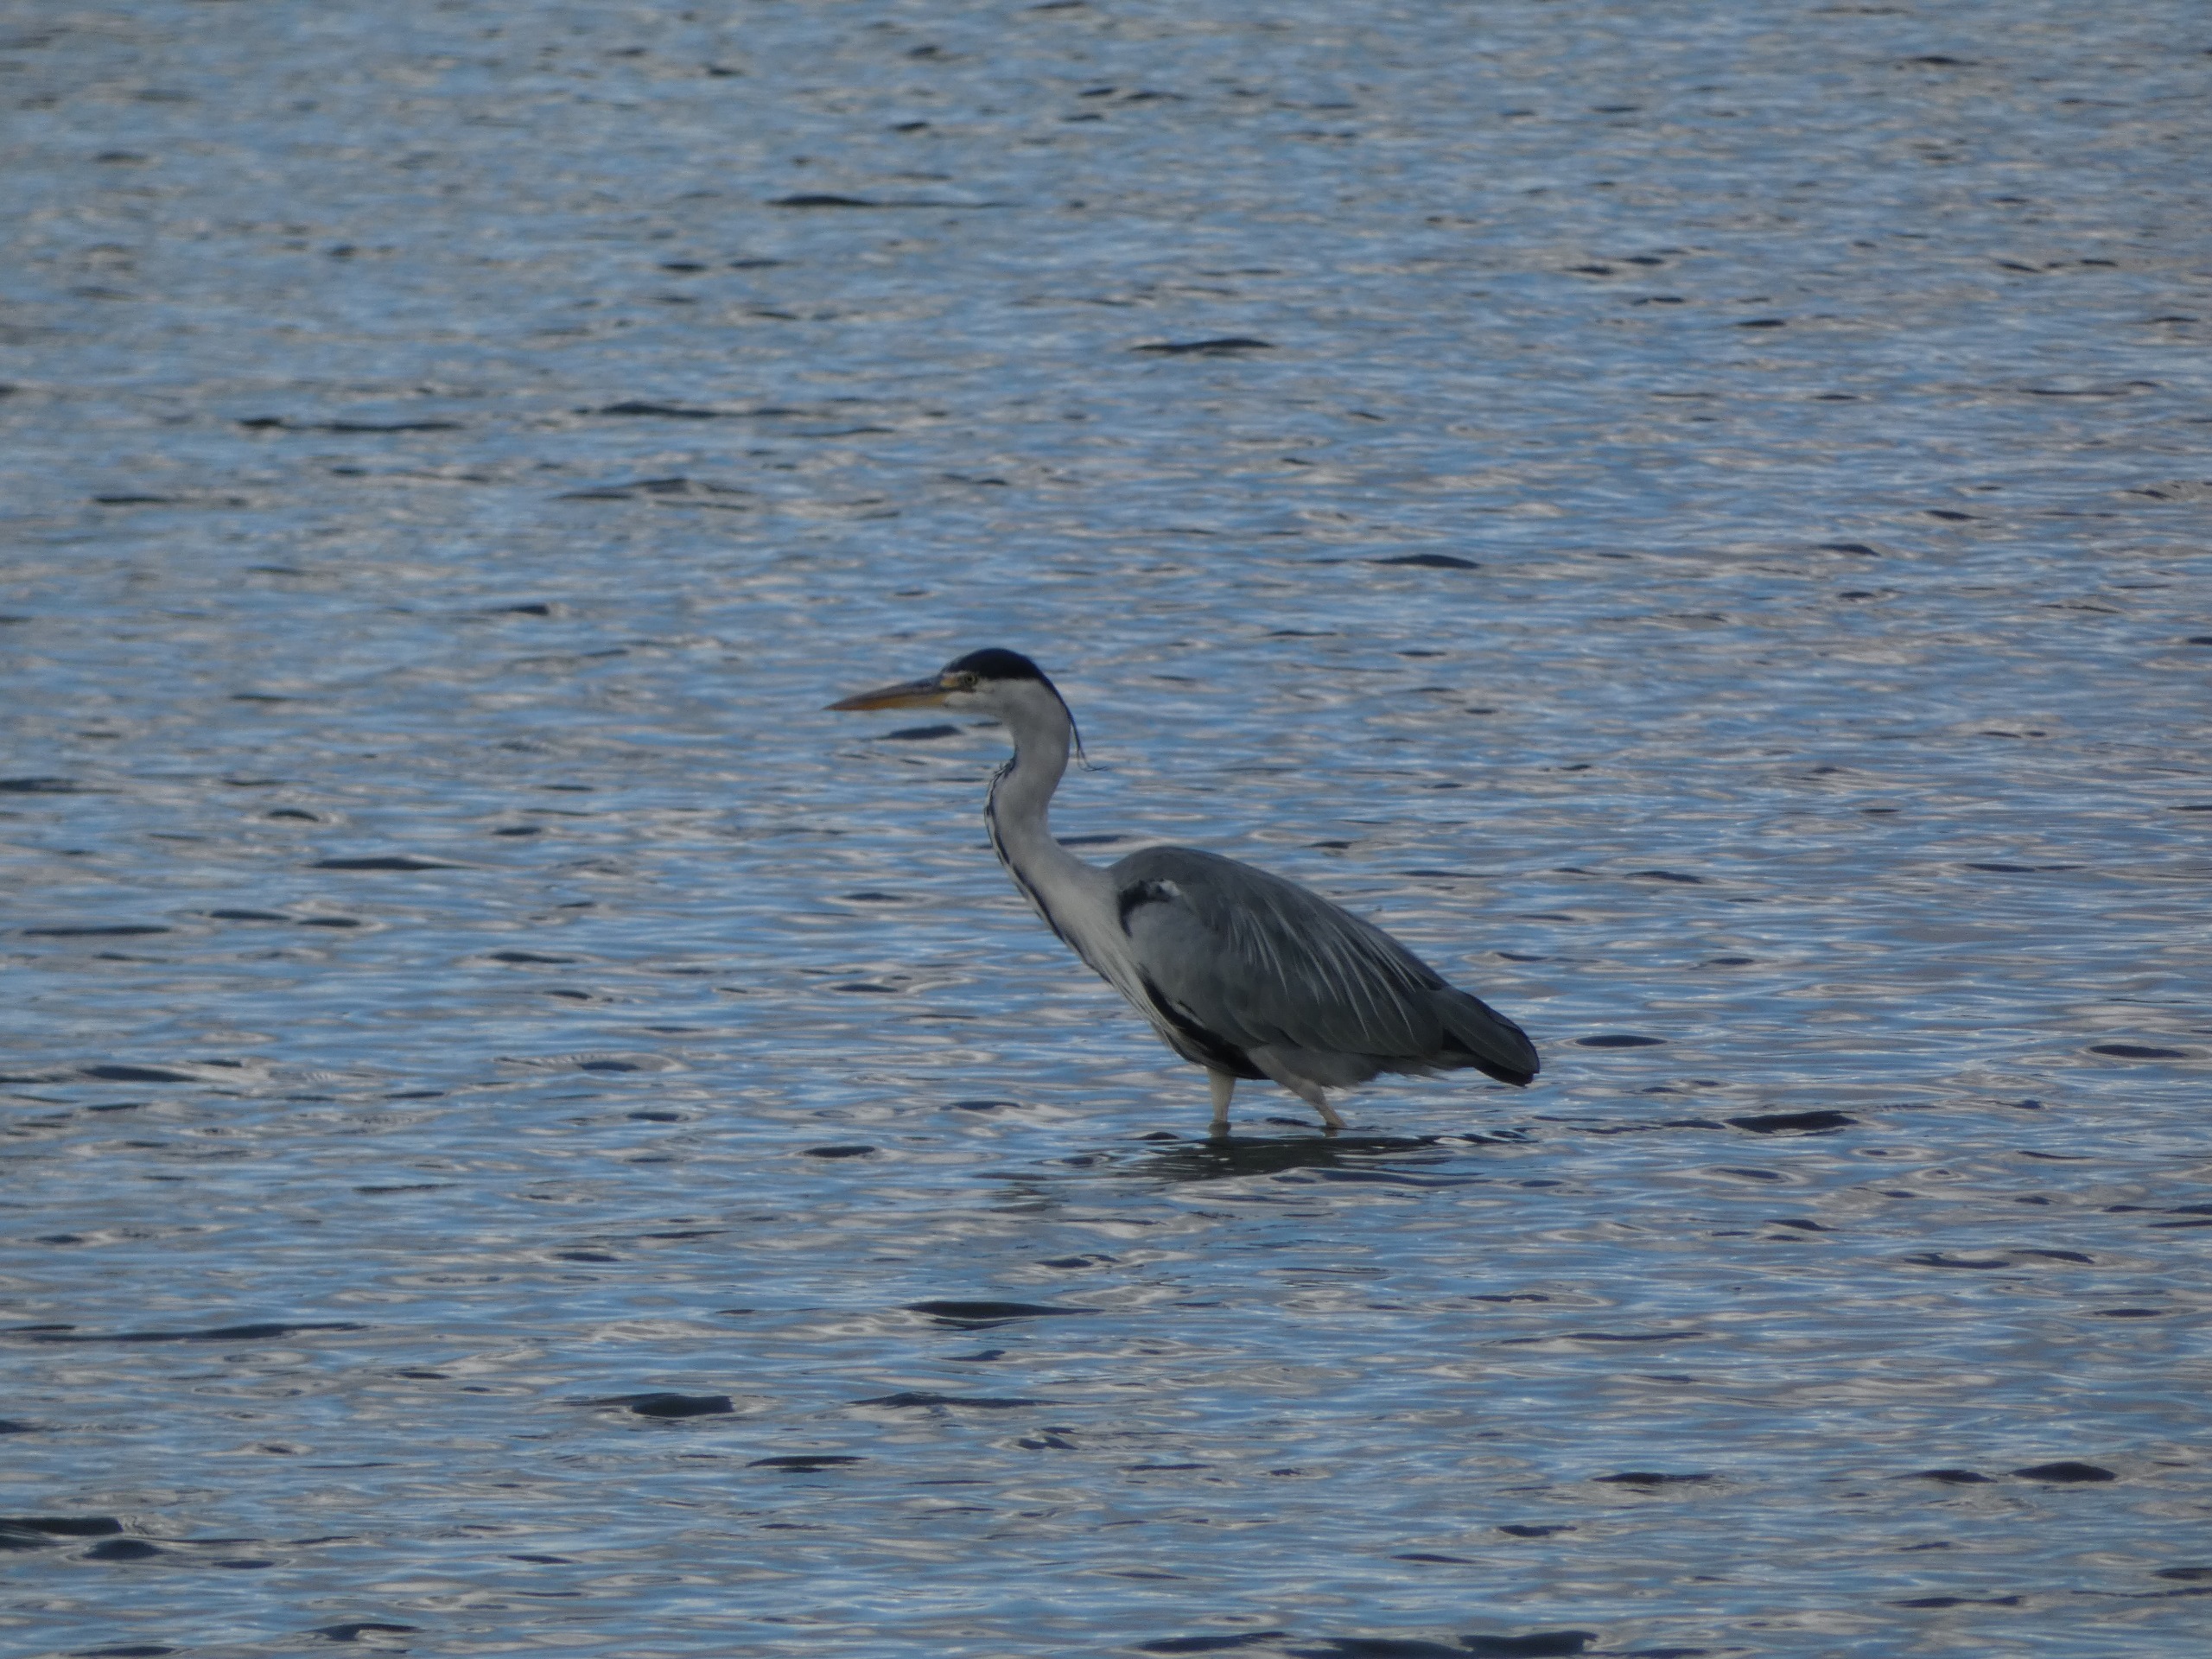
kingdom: Animalia
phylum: Chordata
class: Aves
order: Pelecaniformes
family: Ardeidae
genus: Ardea
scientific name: Ardea cinerea
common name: Fiskehejre
